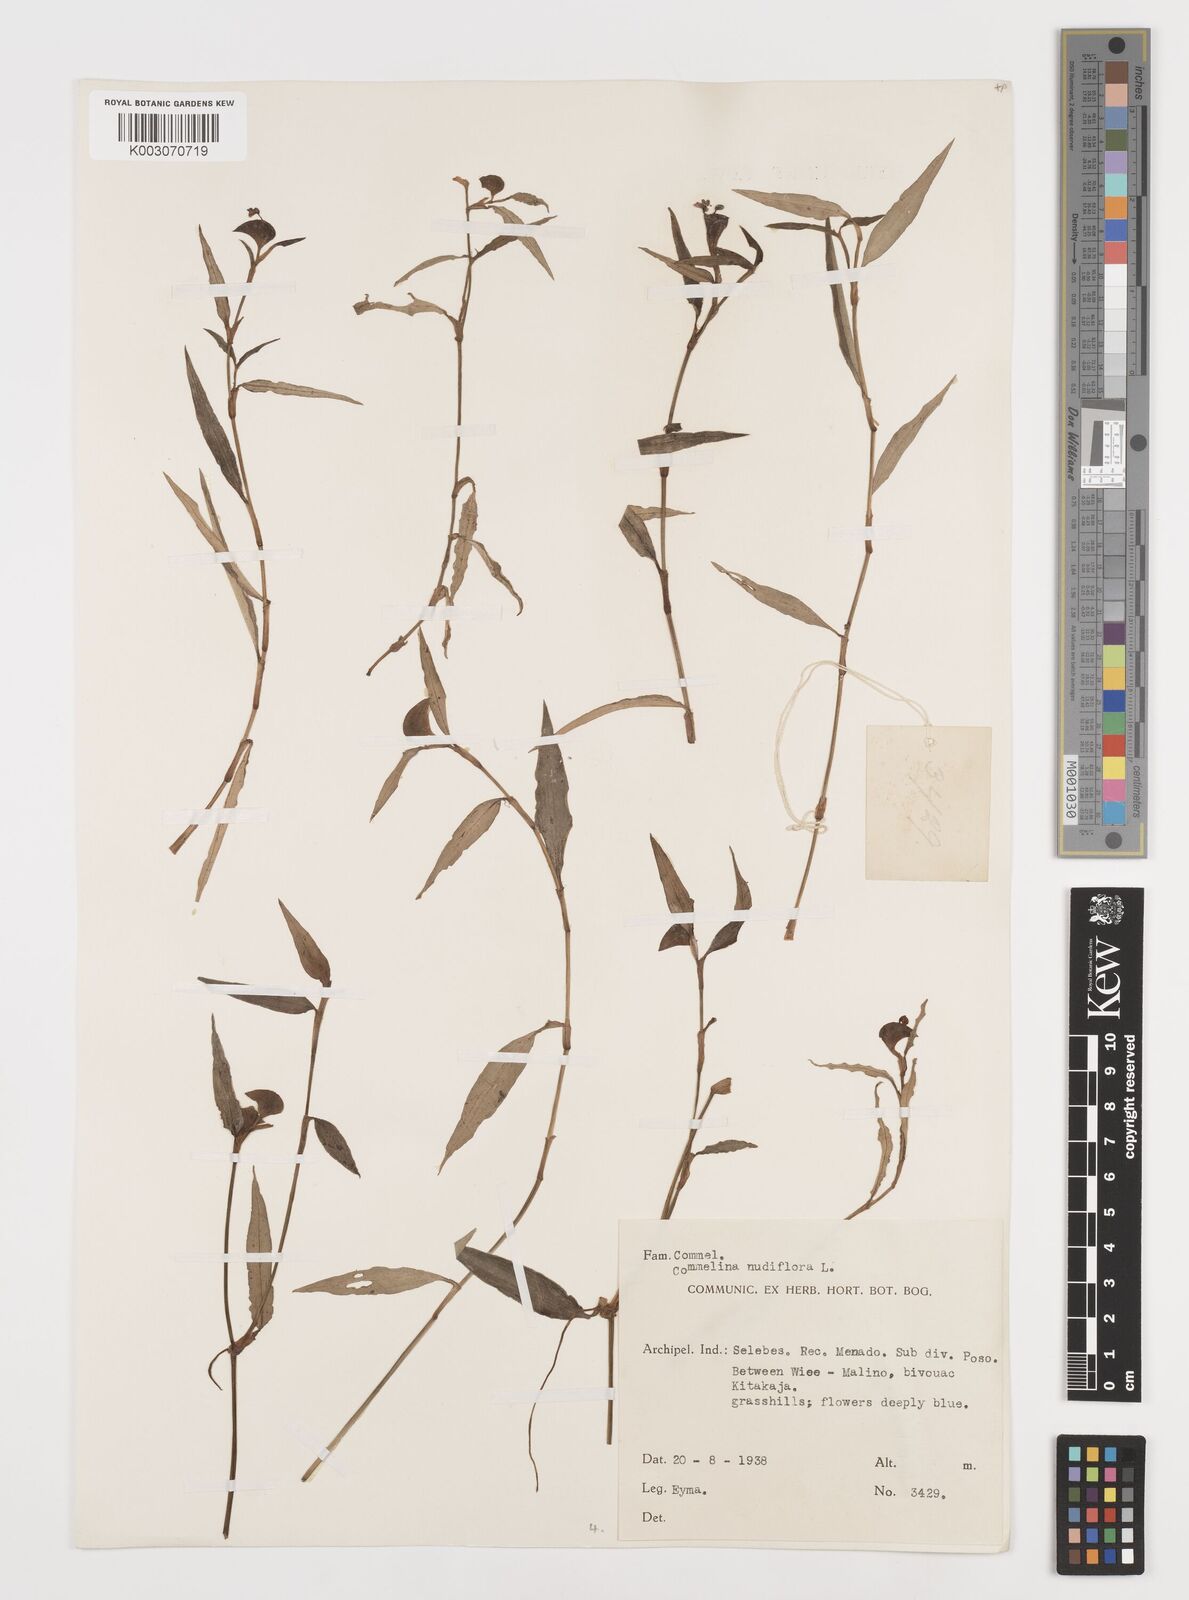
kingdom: Plantae
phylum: Tracheophyta
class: Liliopsida
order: Commelinales
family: Commelinaceae
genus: Commelina
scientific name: Commelina clavata
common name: Willow leaved dayflower
